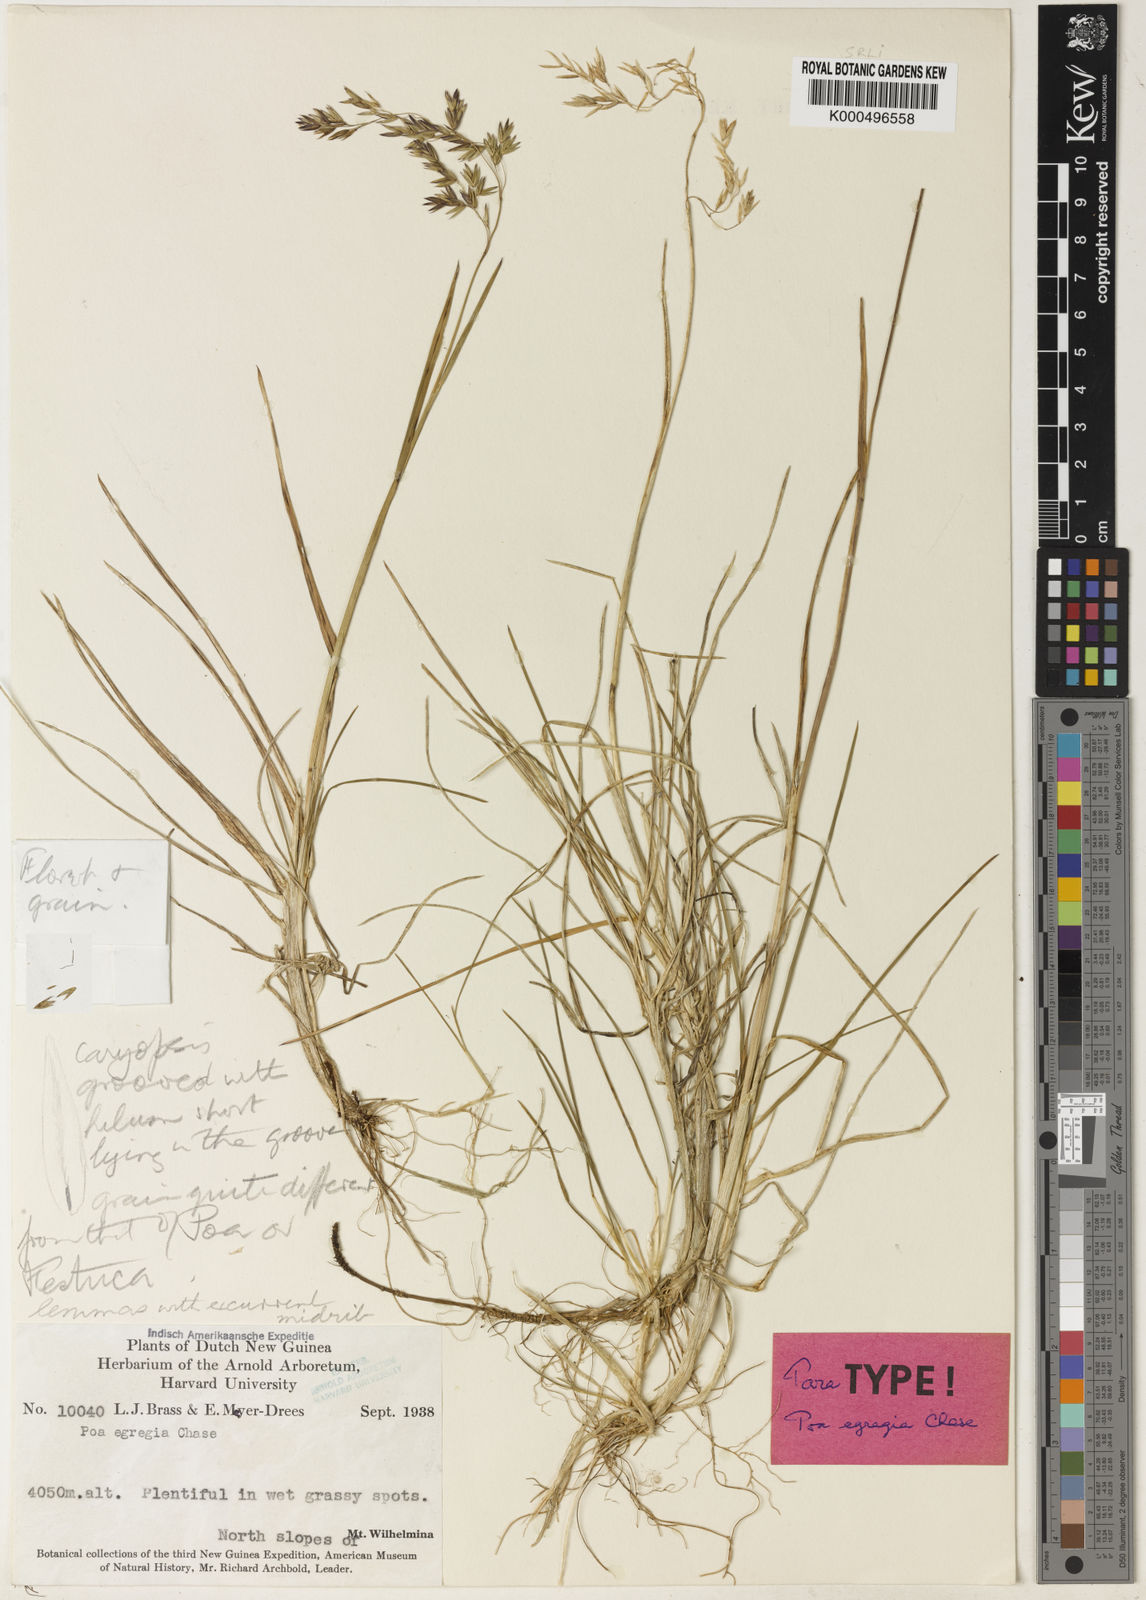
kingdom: Plantae
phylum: Tracheophyta
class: Liliopsida
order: Poales
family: Poaceae
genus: Poa
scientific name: Poa
